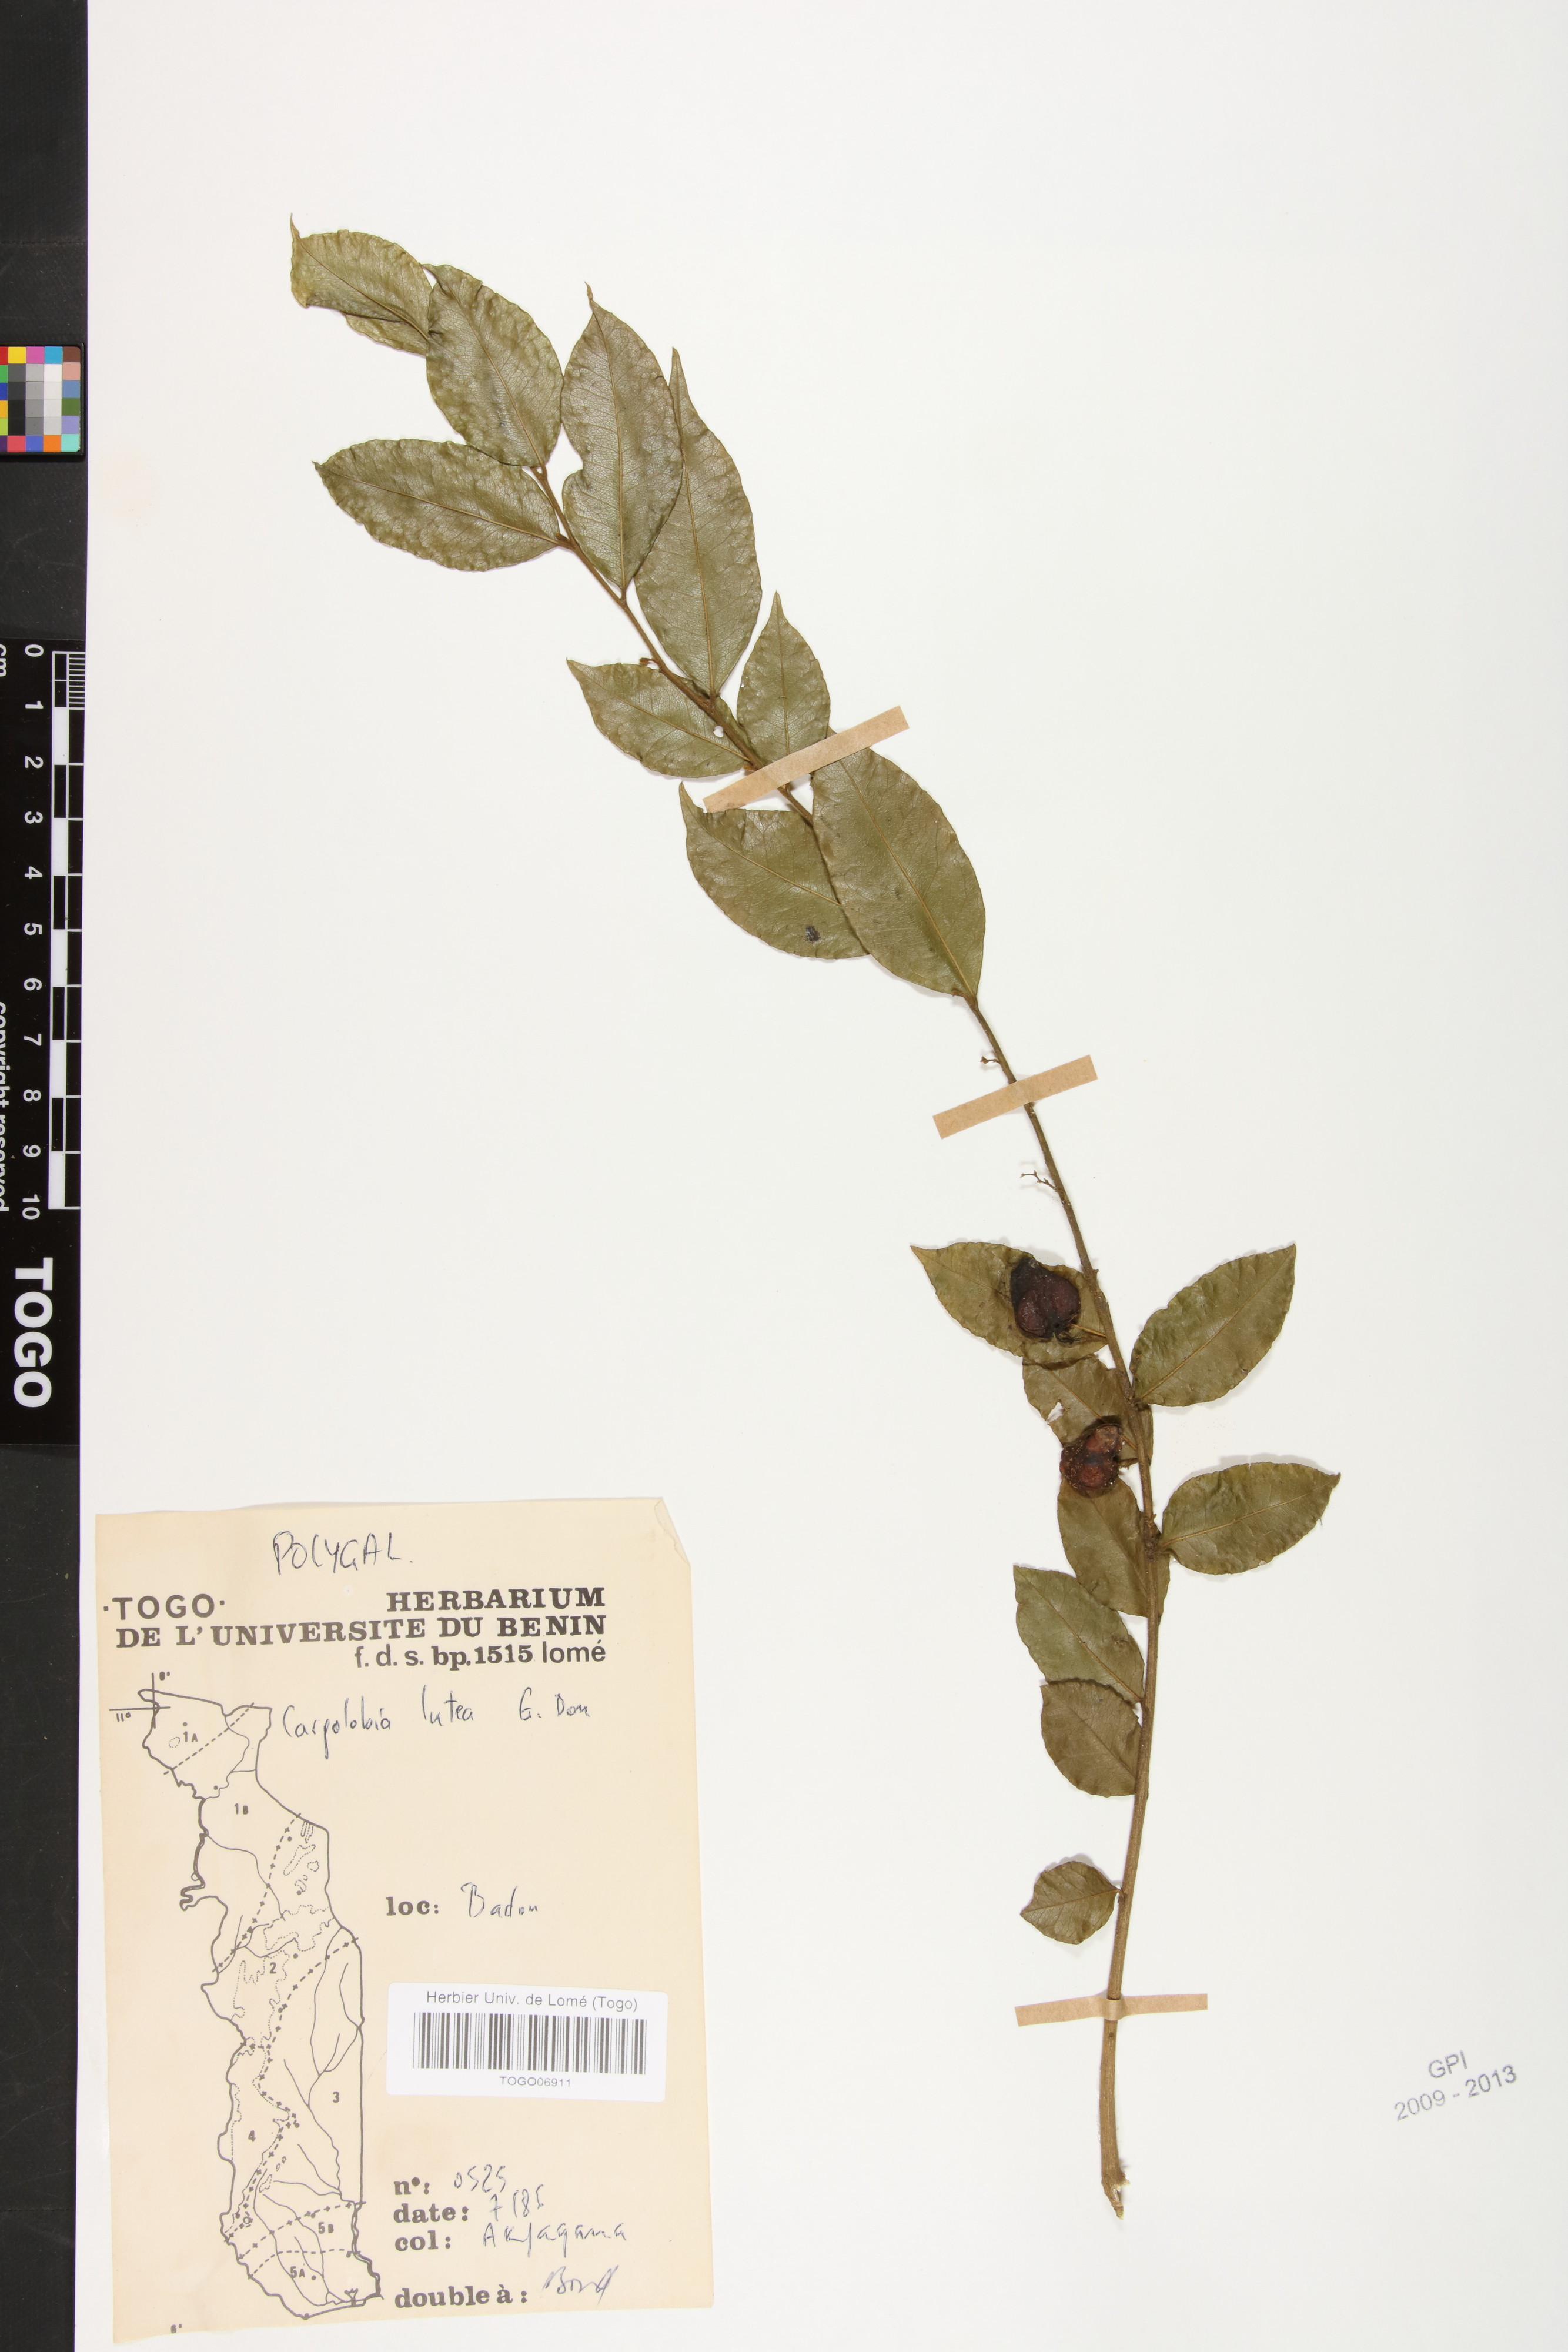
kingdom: Plantae
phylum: Tracheophyta
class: Magnoliopsida
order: Fabales
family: Polygalaceae
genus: Carpolobia
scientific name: Carpolobia lutea
